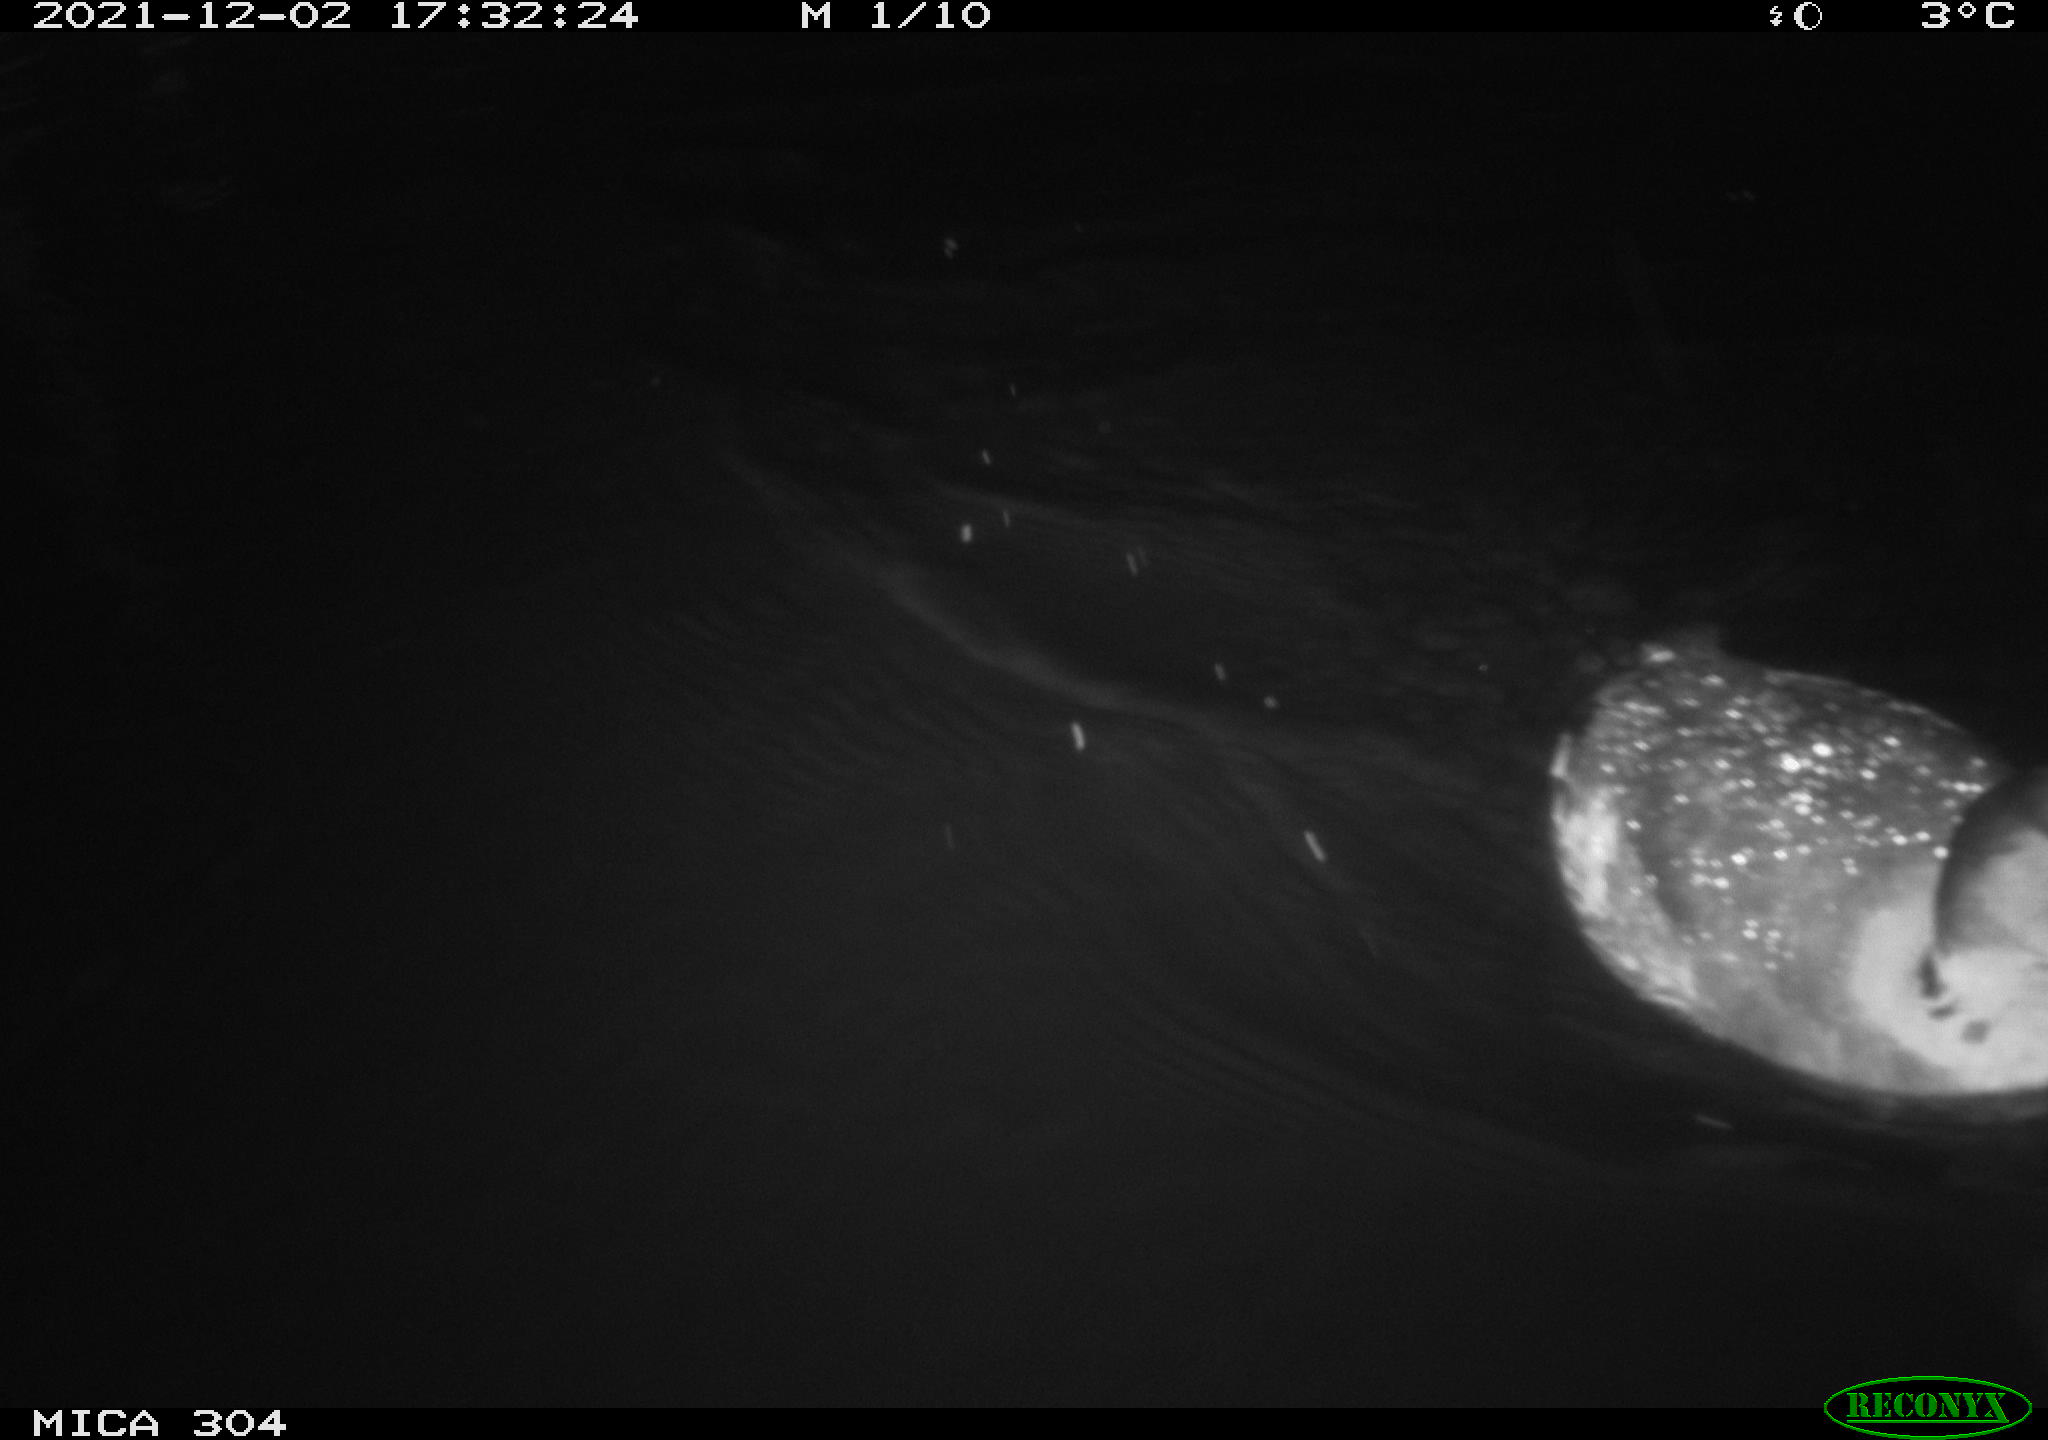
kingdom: Animalia
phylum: Chordata
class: Aves
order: Gruiformes
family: Rallidae
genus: Fulica
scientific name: Fulica atra
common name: Eurasian coot
